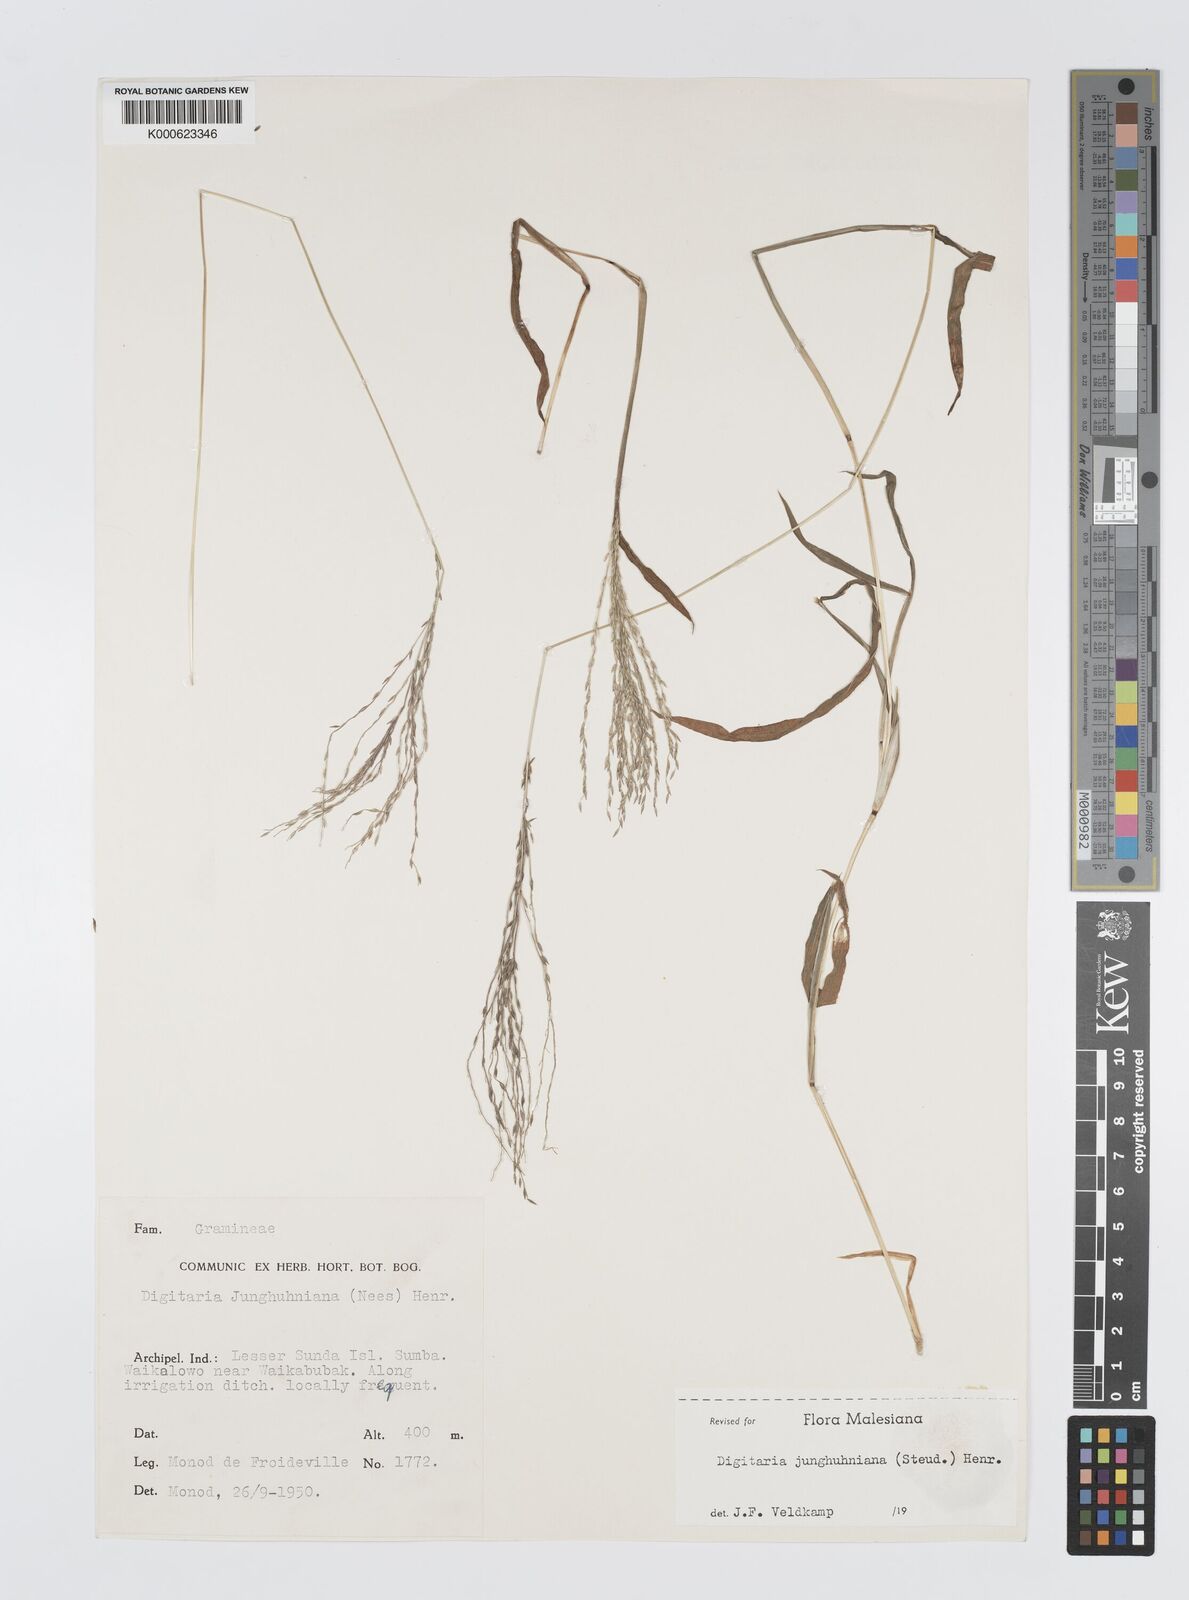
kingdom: Plantae
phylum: Tracheophyta
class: Liliopsida
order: Poales
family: Poaceae
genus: Digitaria
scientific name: Digitaria junghuhniana
